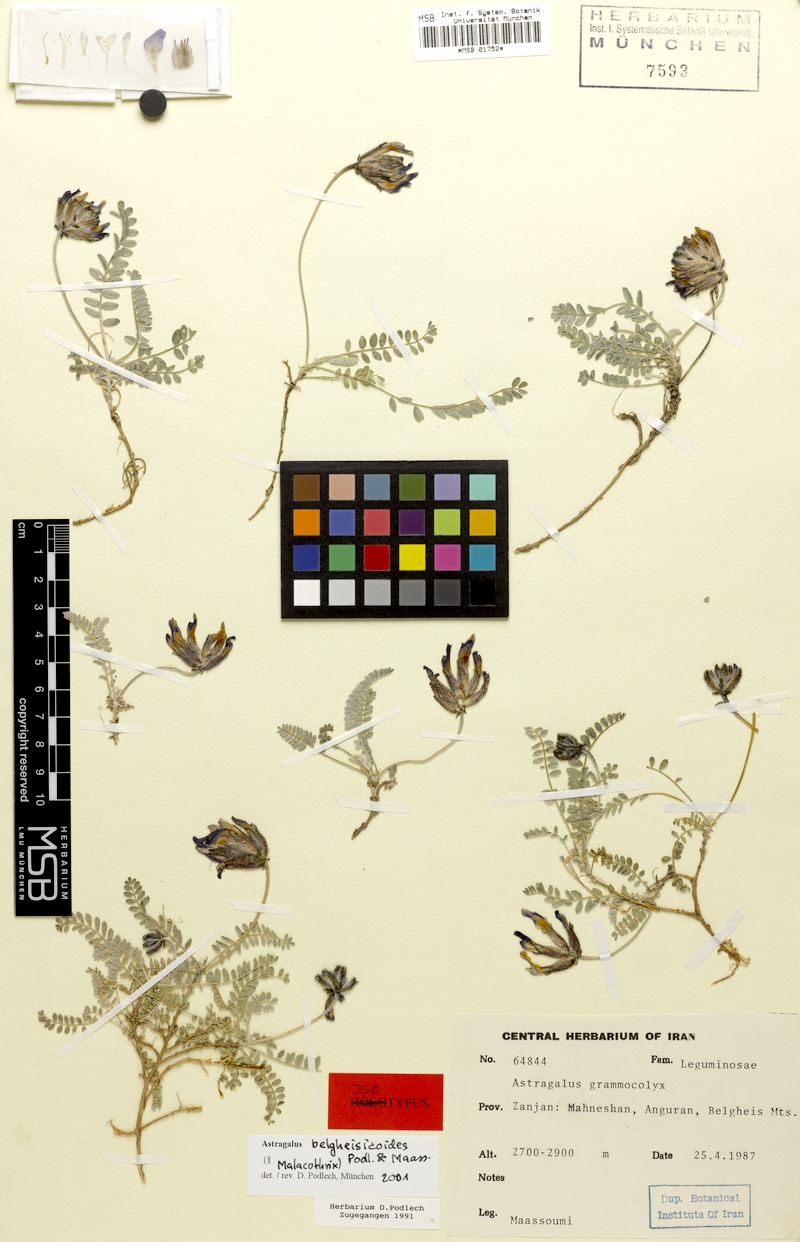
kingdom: Plantae
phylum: Tracheophyta
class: Magnoliopsida
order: Fabales
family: Fabaceae
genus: Astragalus
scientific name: Astragalus belgheisicoides
